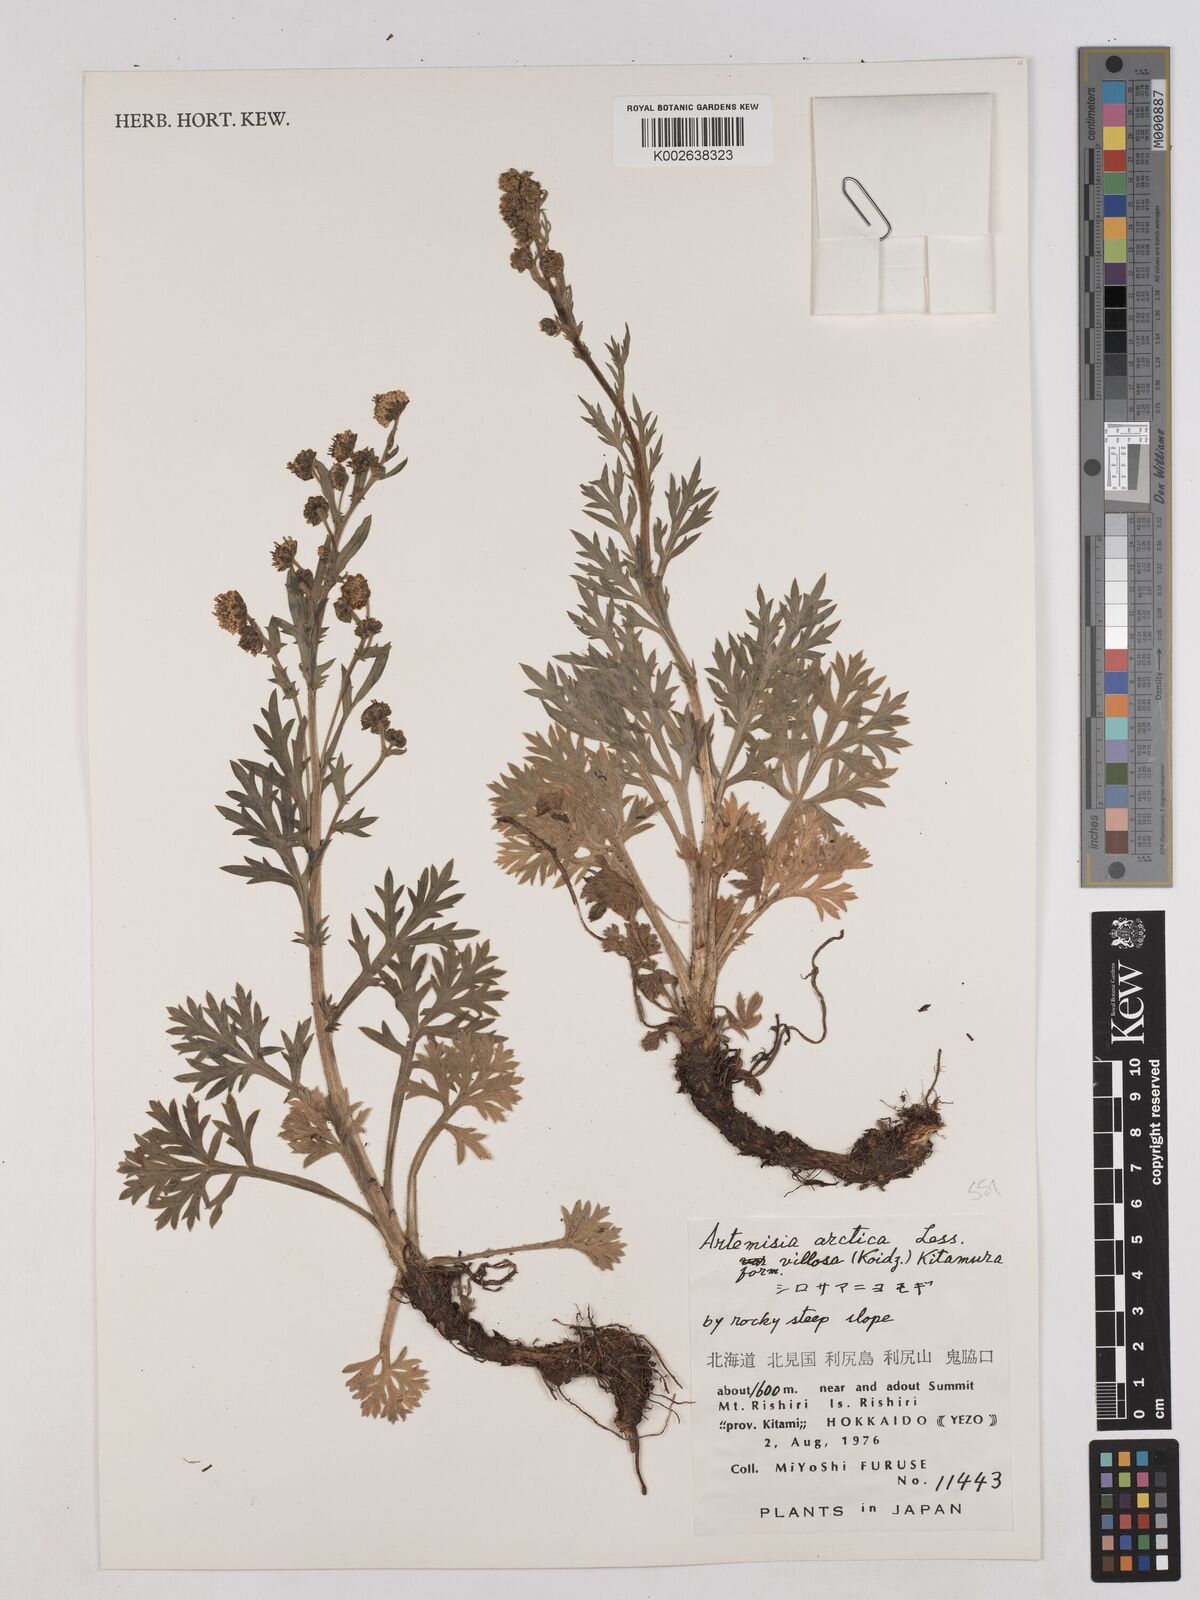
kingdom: Plantae
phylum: Tracheophyta
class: Magnoliopsida
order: Asterales
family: Asteraceae
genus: Artemisia
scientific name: Artemisia norvegica
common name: Norwegian mugwort
